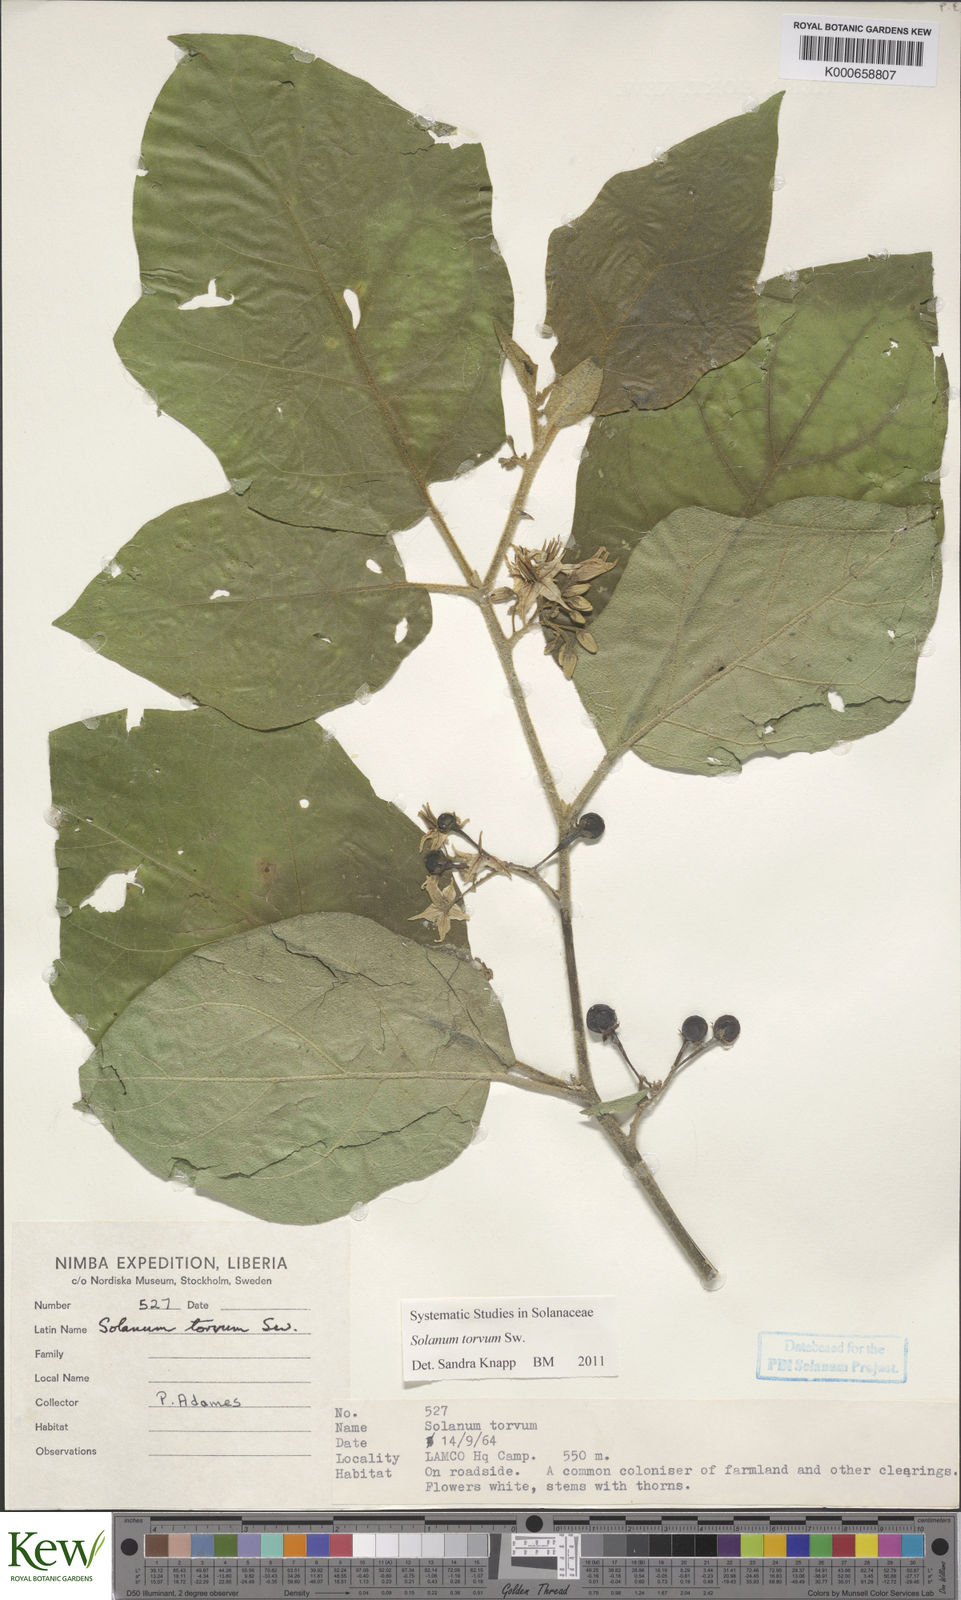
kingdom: Plantae
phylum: Tracheophyta
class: Magnoliopsida
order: Solanales
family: Solanaceae
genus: Solanum
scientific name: Solanum torvum
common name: Turkey berry
